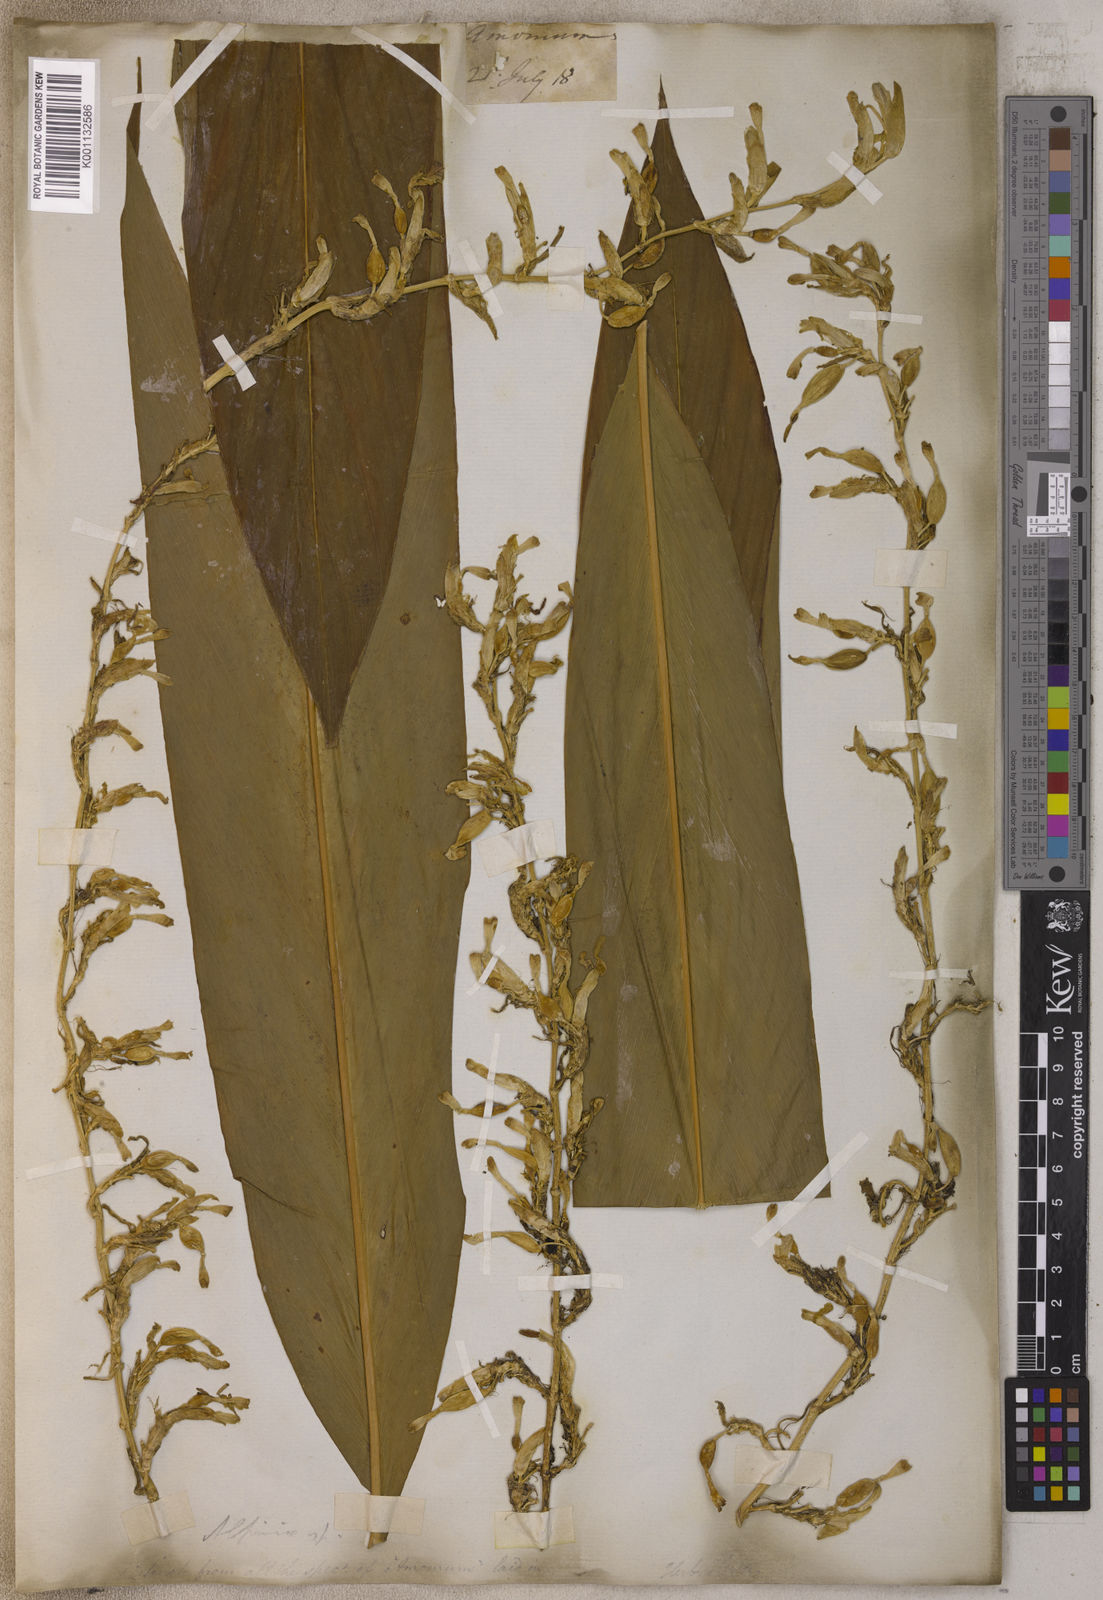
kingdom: Plantae
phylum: Tracheophyta
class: Liliopsida
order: Zingiberales
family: Zingiberaceae
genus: Elettaria
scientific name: Elettaria cardamomum
